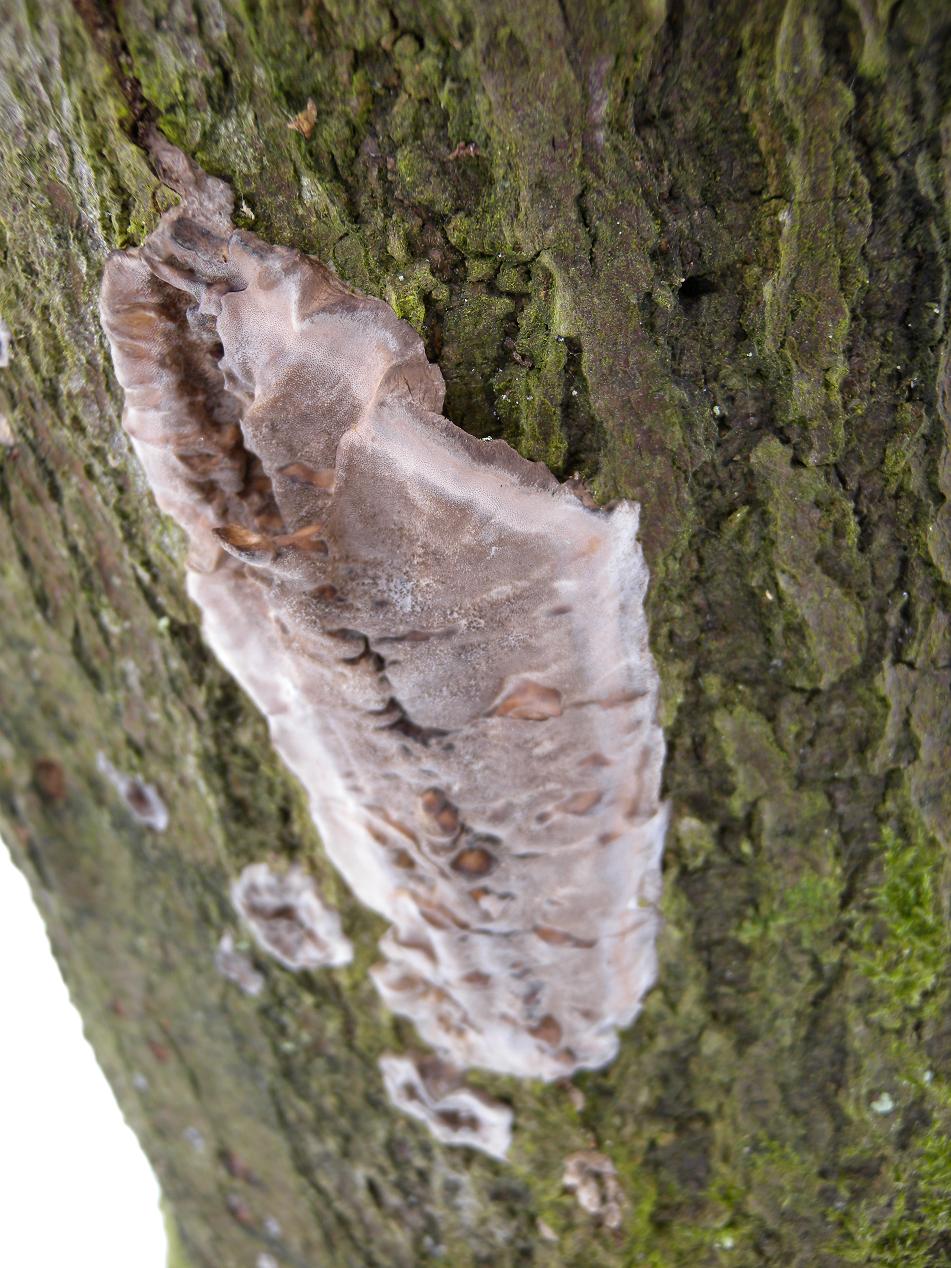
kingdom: Fungi
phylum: Basidiomycota
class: Agaricomycetes
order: Polyporales
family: Phanerochaetaceae
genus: Bjerkandera
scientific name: Bjerkandera adusta
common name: sveden sodporesvamp
